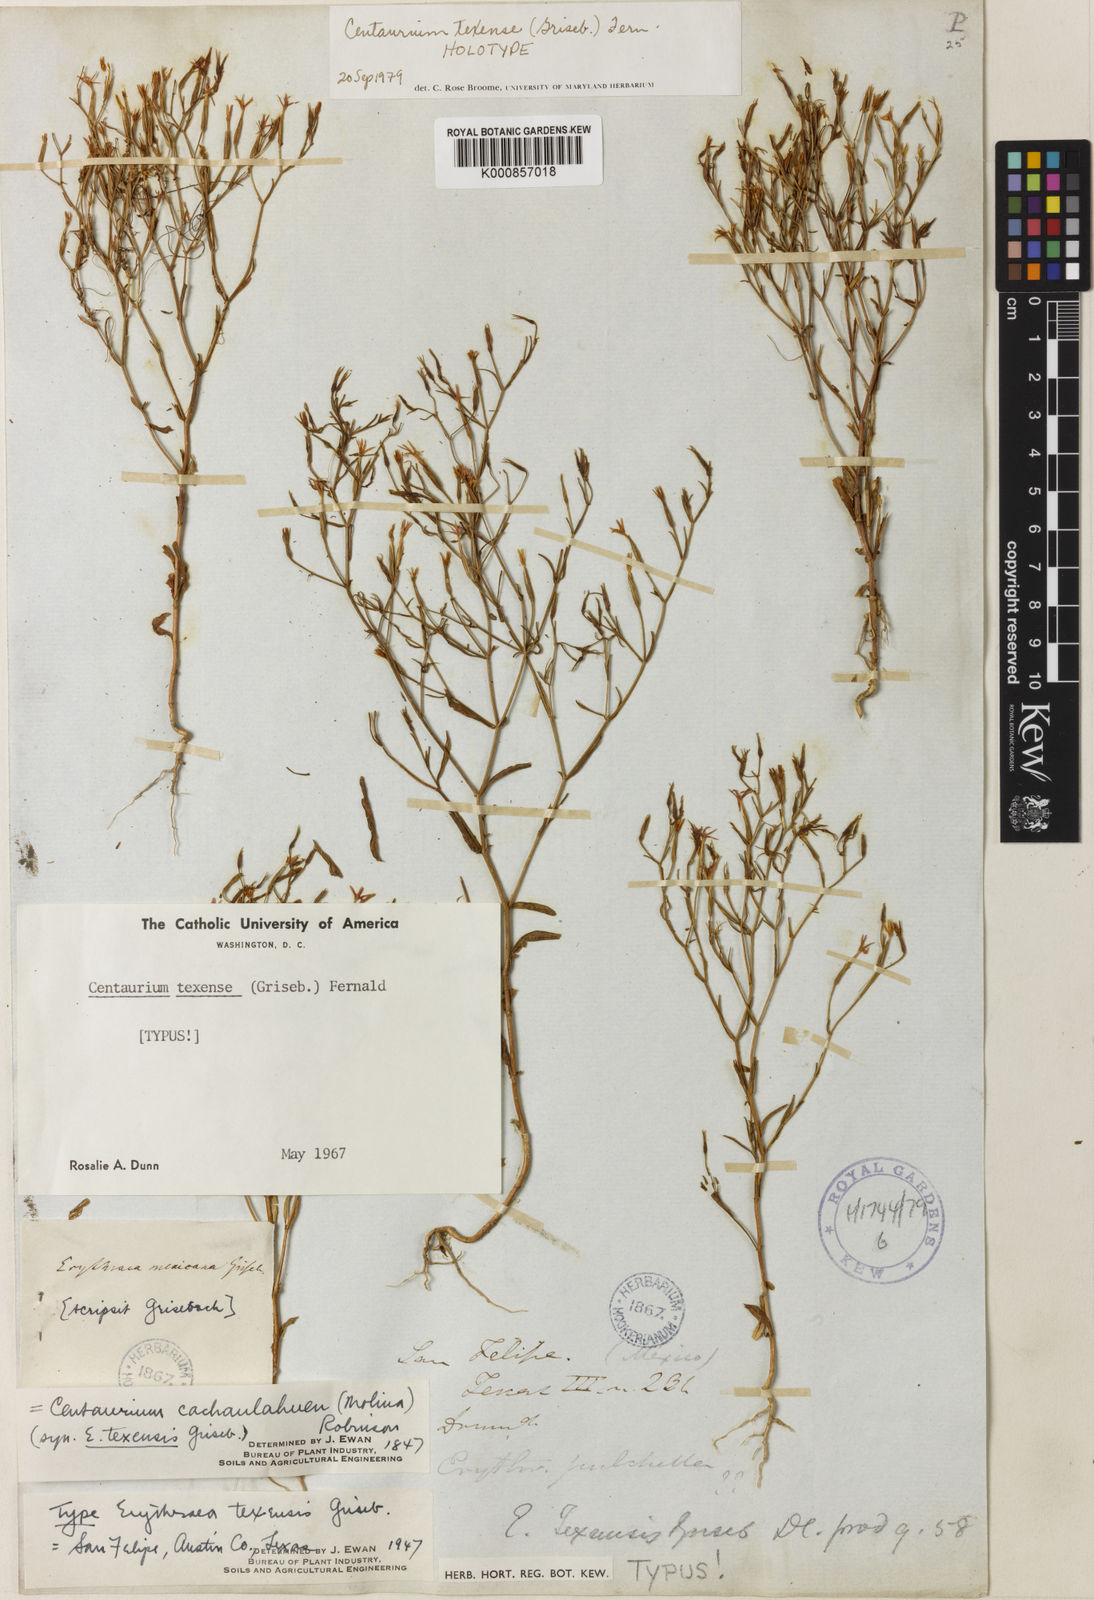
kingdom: Plantae
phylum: Tracheophyta
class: Magnoliopsida
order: Gentianales
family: Gentianaceae
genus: Zeltnera
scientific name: Zeltnera texensis
